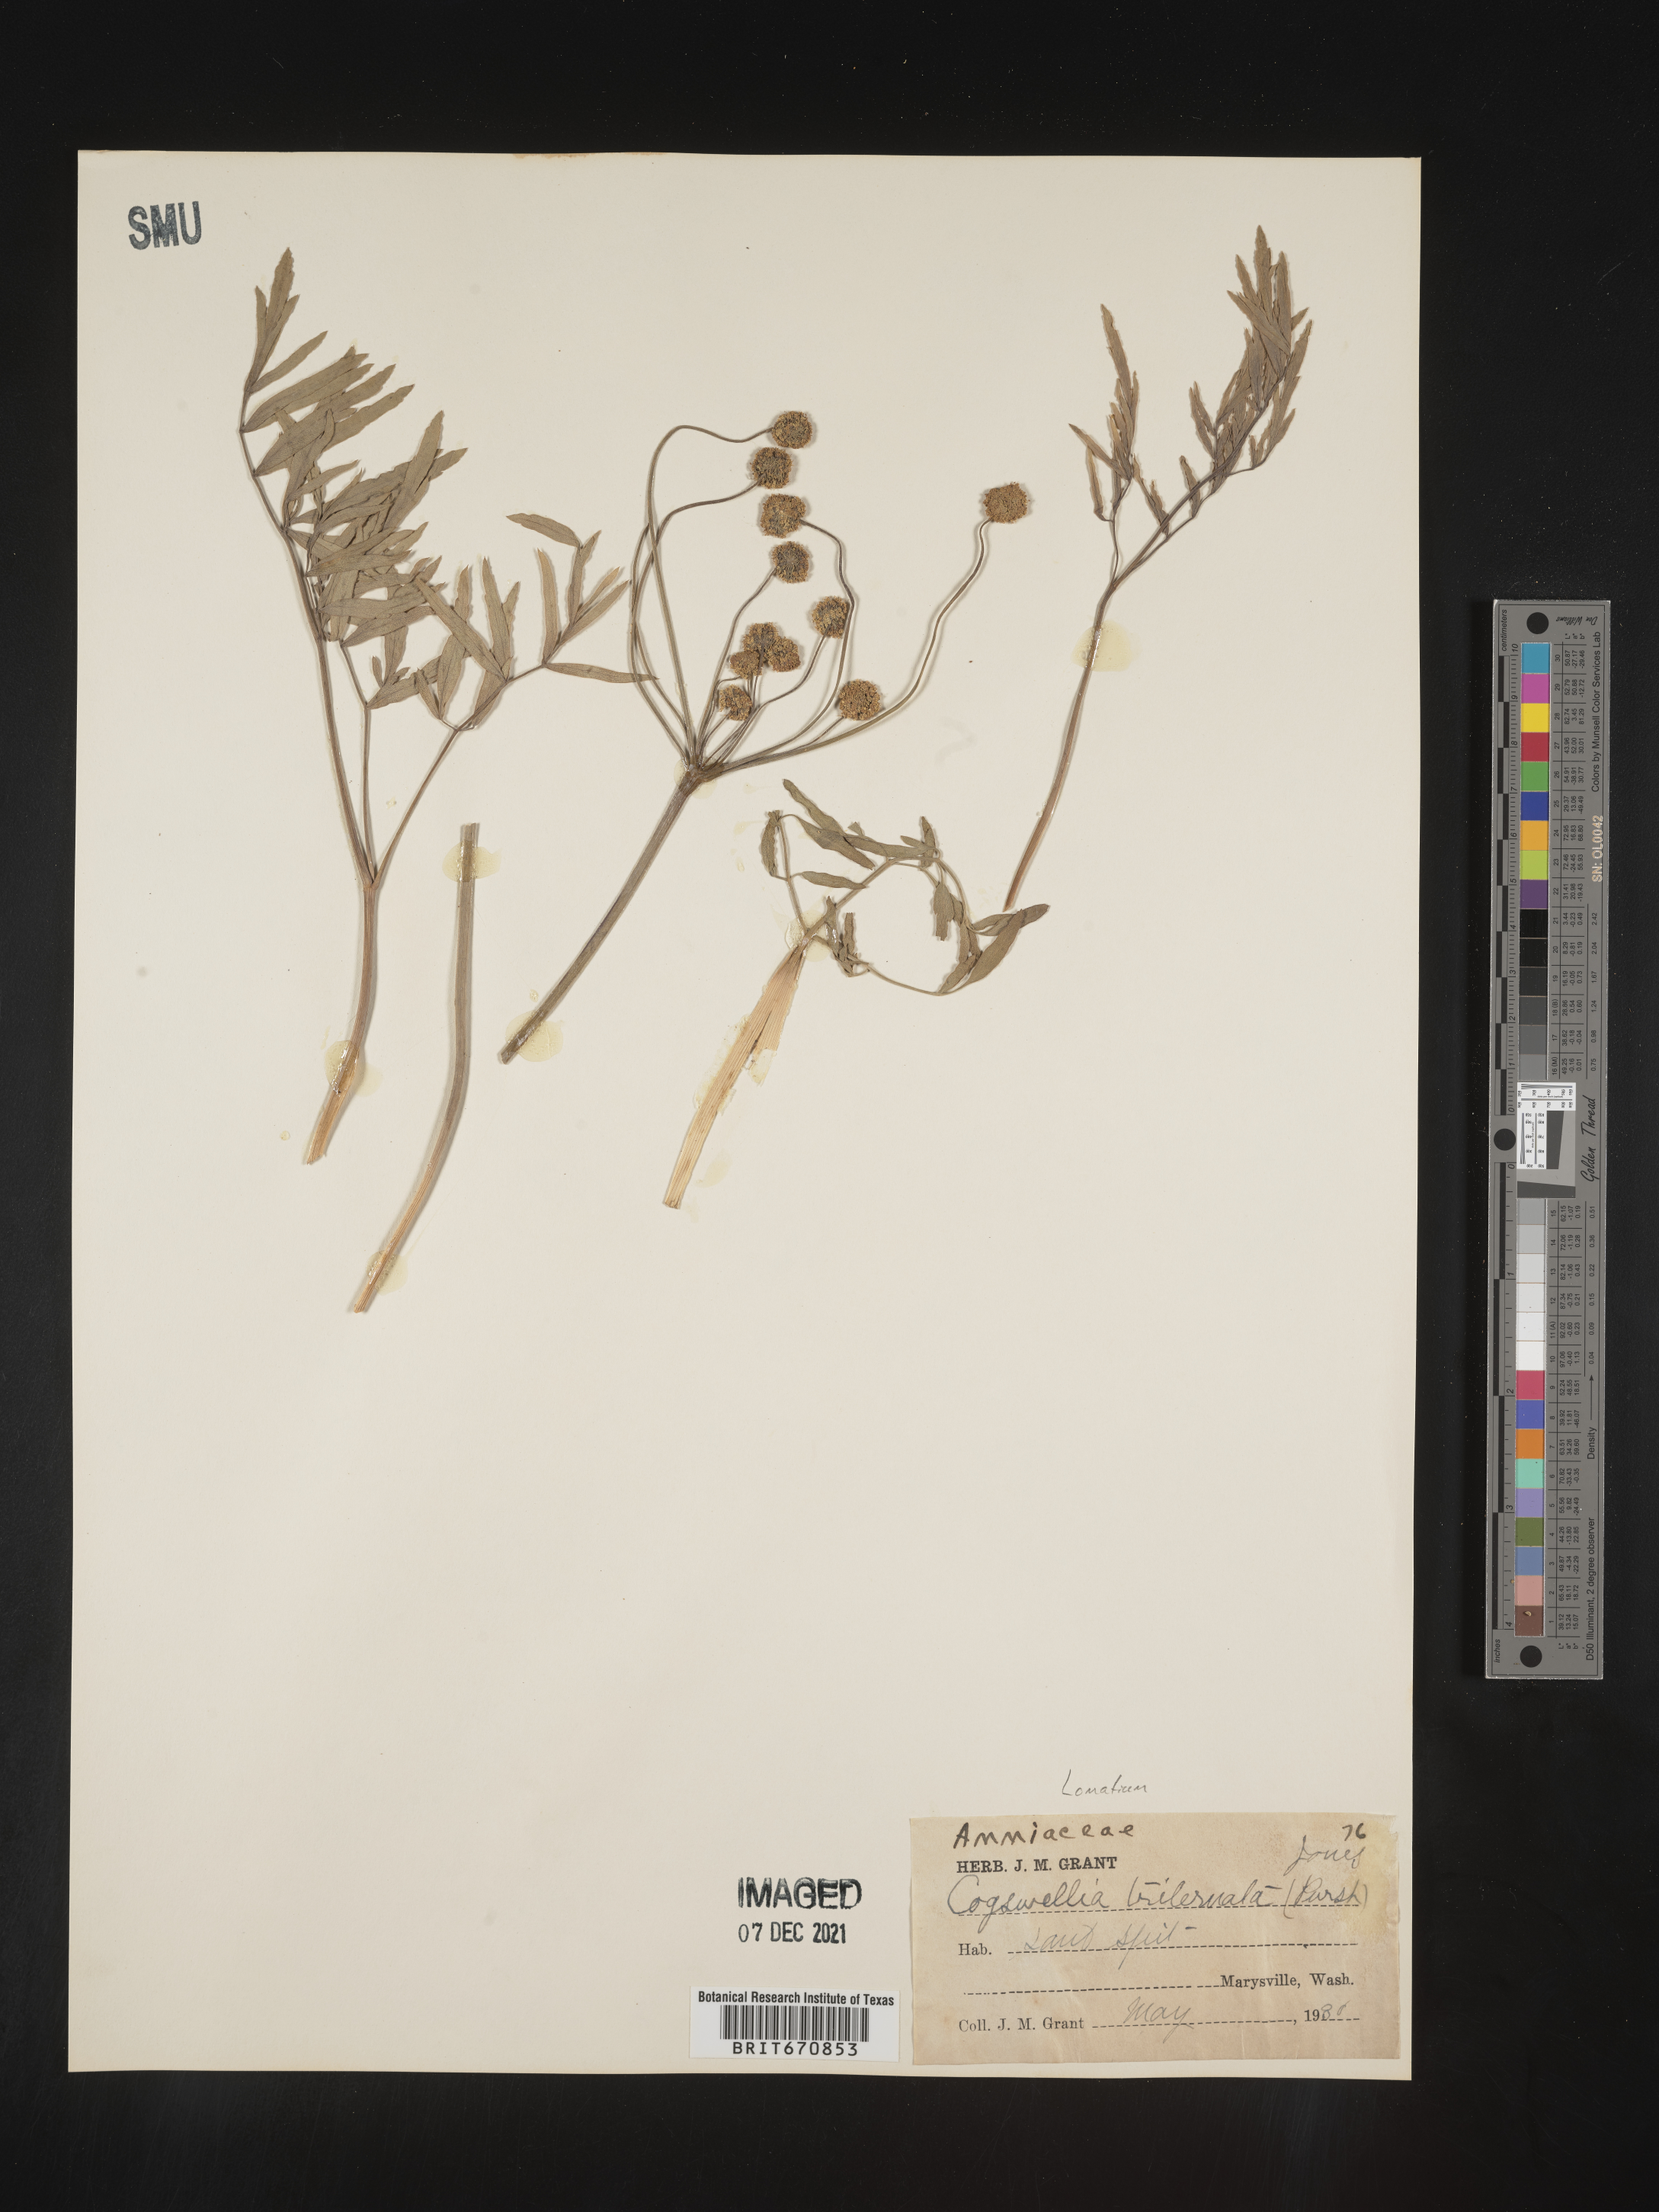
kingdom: Plantae
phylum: Tracheophyta
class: Magnoliopsida
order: Apiales
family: Apiaceae
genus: Lomatium
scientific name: Lomatium triternatum
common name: Ternate lomatium
